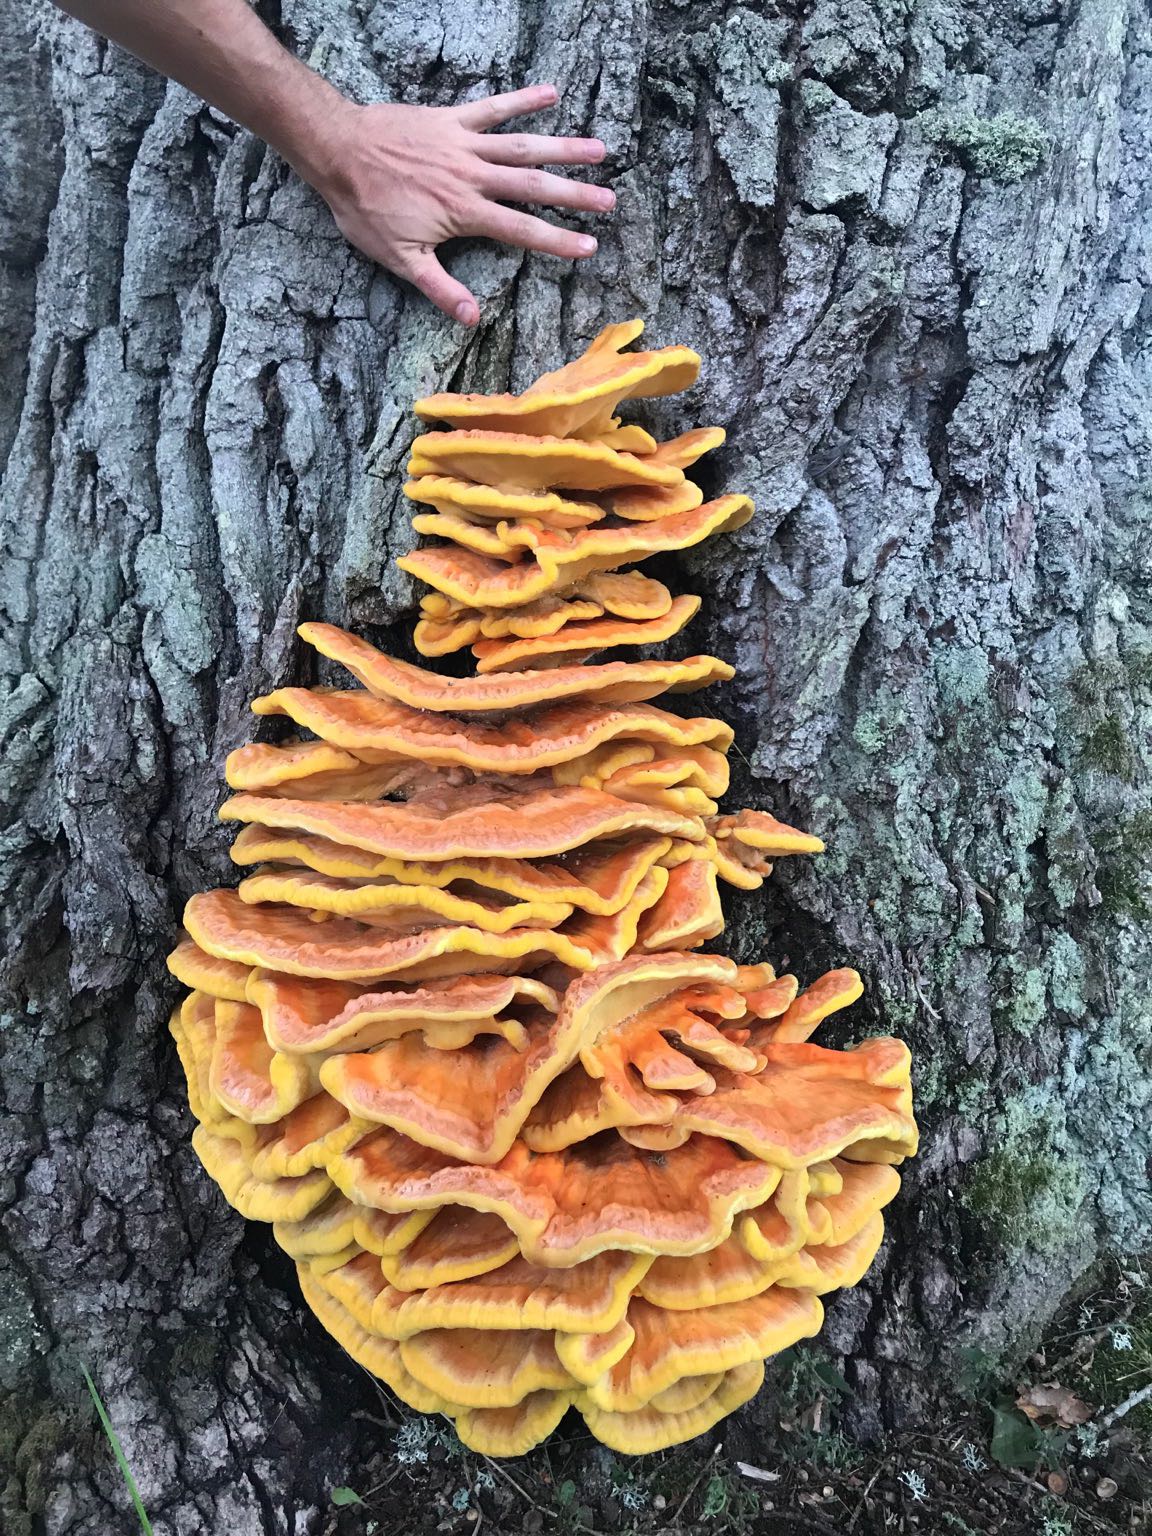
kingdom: Fungi
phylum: Basidiomycota
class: Agaricomycetes
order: Polyporales
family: Laetiporaceae
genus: Laetiporus
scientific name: Laetiporus sulphureus
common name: svovlporesvamp
